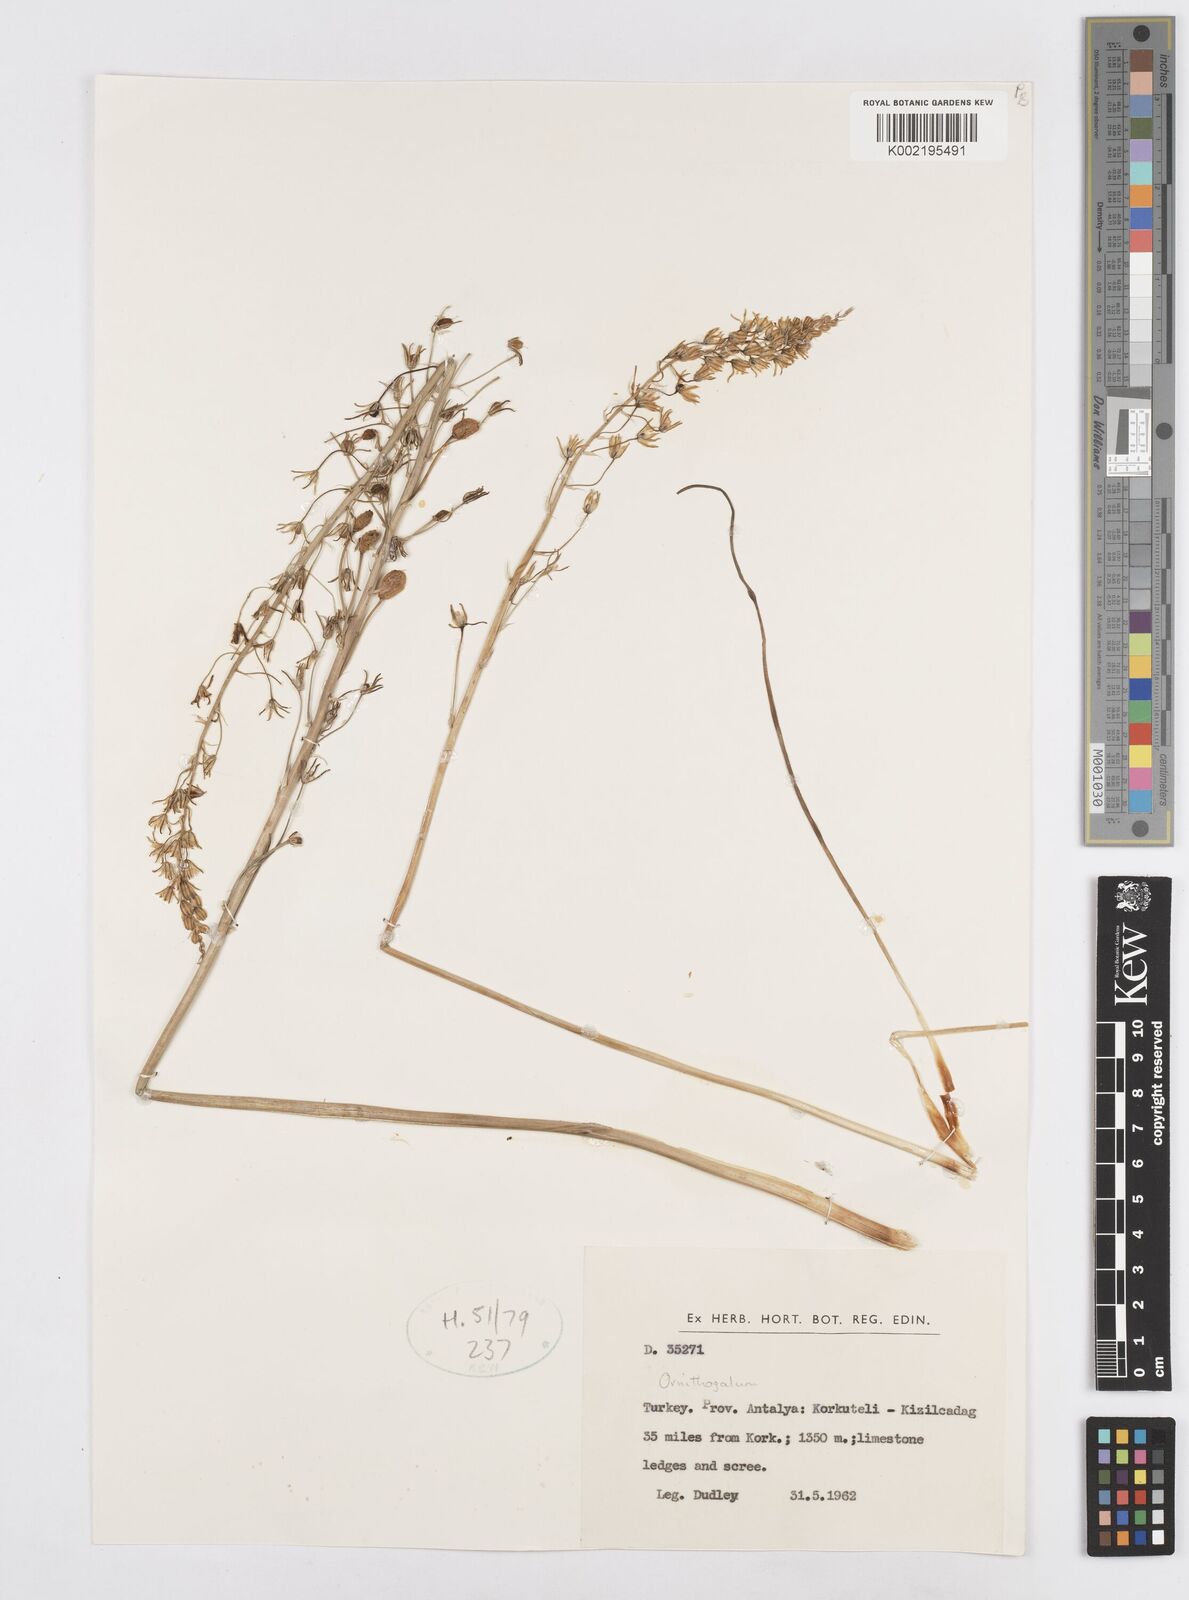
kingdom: Plantae
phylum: Tracheophyta
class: Liliopsida
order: Asparagales
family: Asparagaceae
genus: Ornithogalum
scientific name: Ornithogalum
